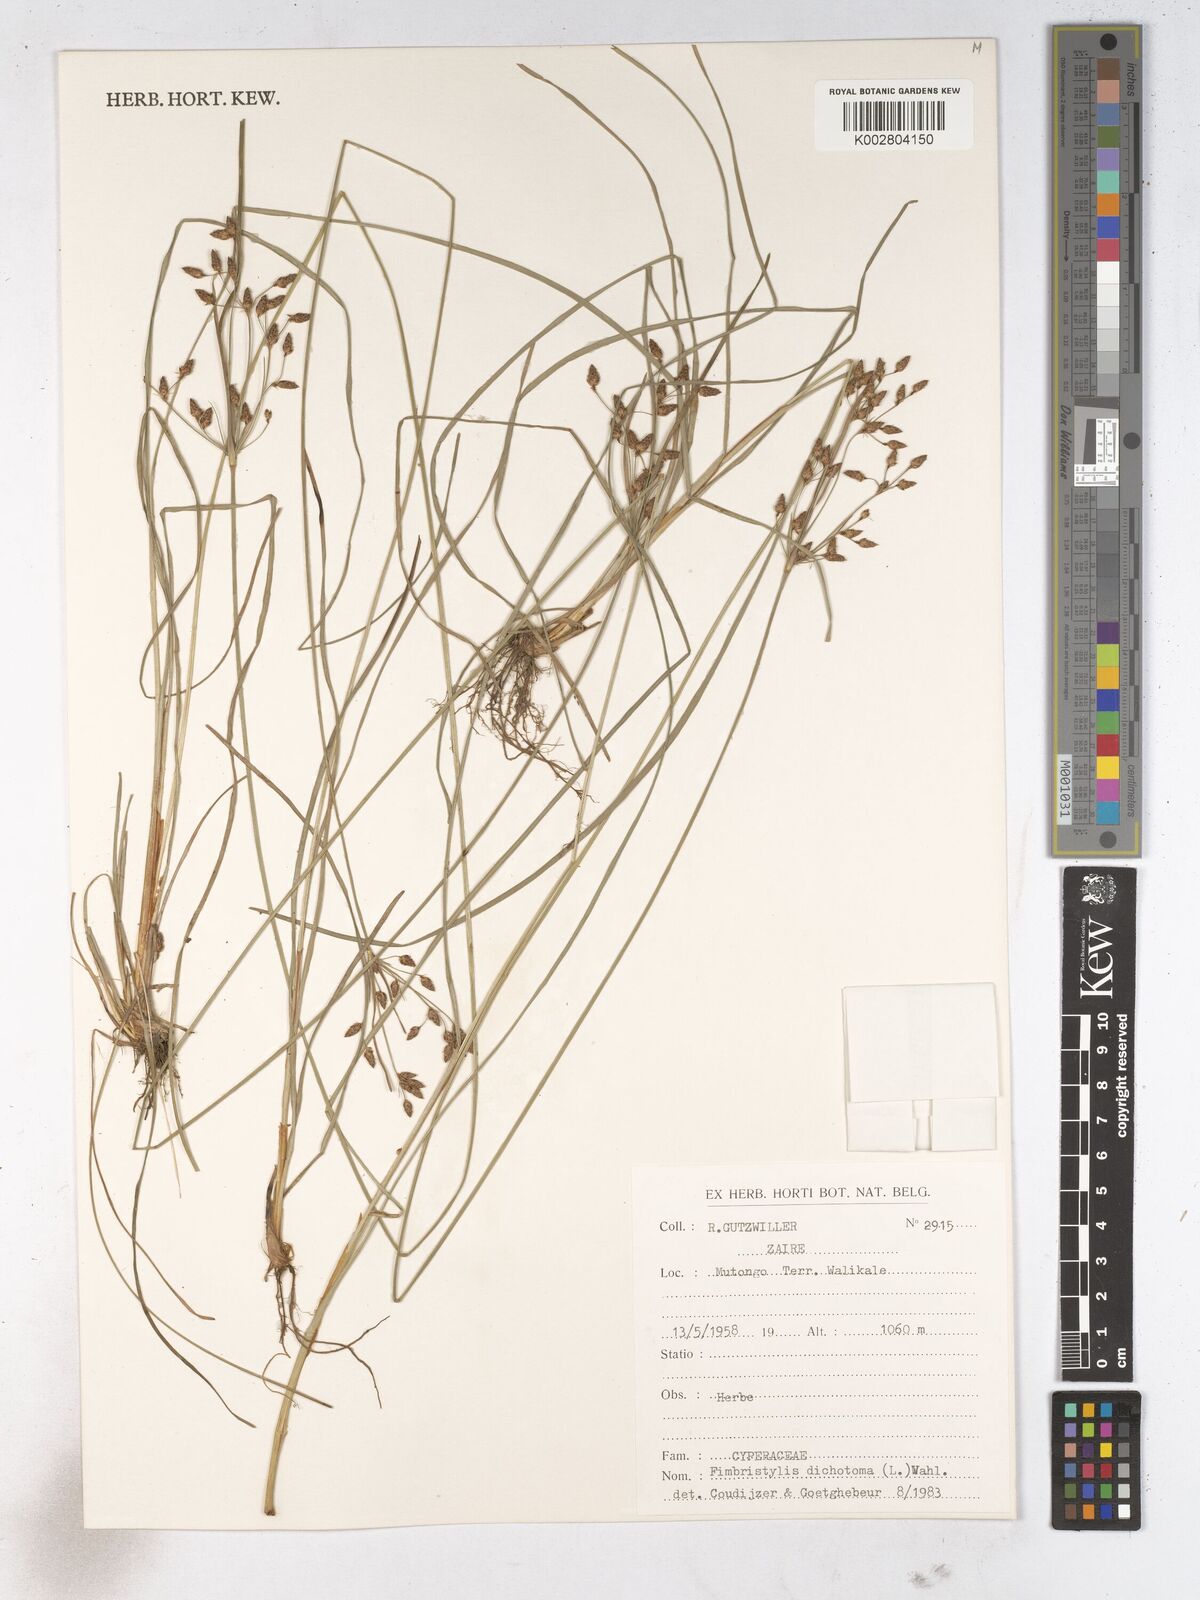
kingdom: Plantae
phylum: Tracheophyta
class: Liliopsida
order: Poales
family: Cyperaceae
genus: Fimbristylis
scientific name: Fimbristylis dichotoma
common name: Forked fimbry
